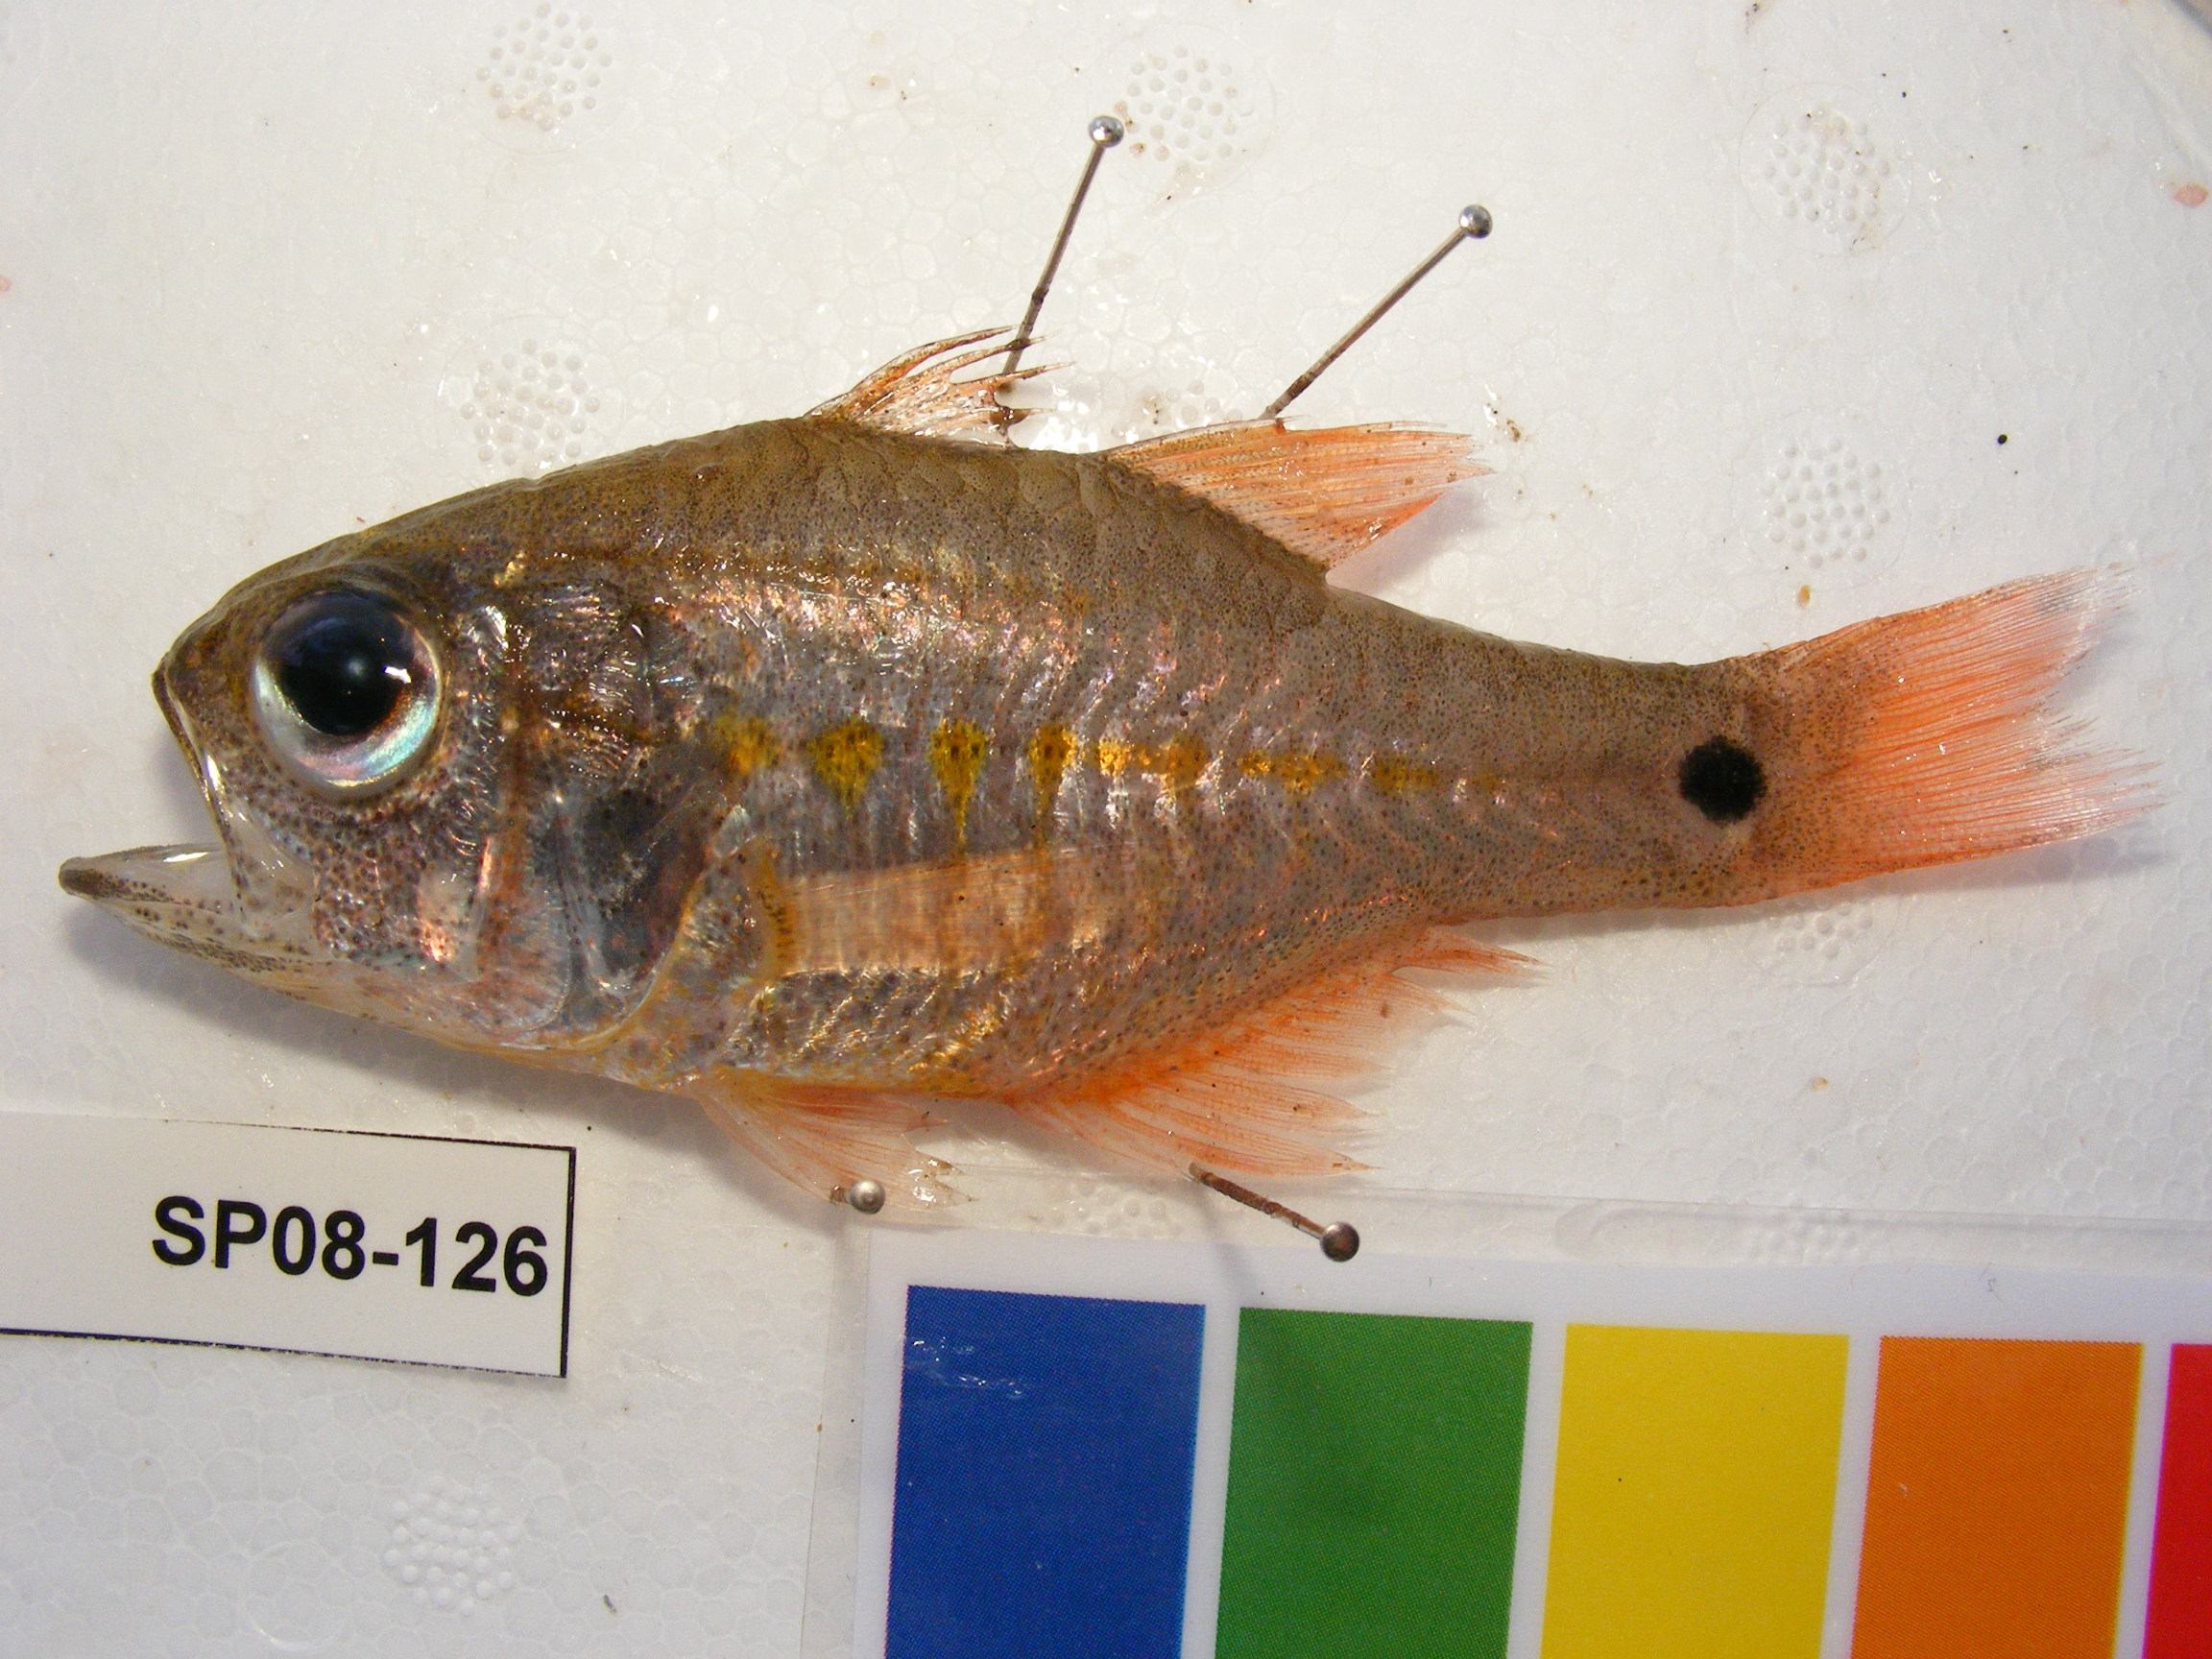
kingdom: Animalia
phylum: Chordata
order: Perciformes
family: Apogonidae
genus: Taeniamia
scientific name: Taeniamia mozambiquensis
